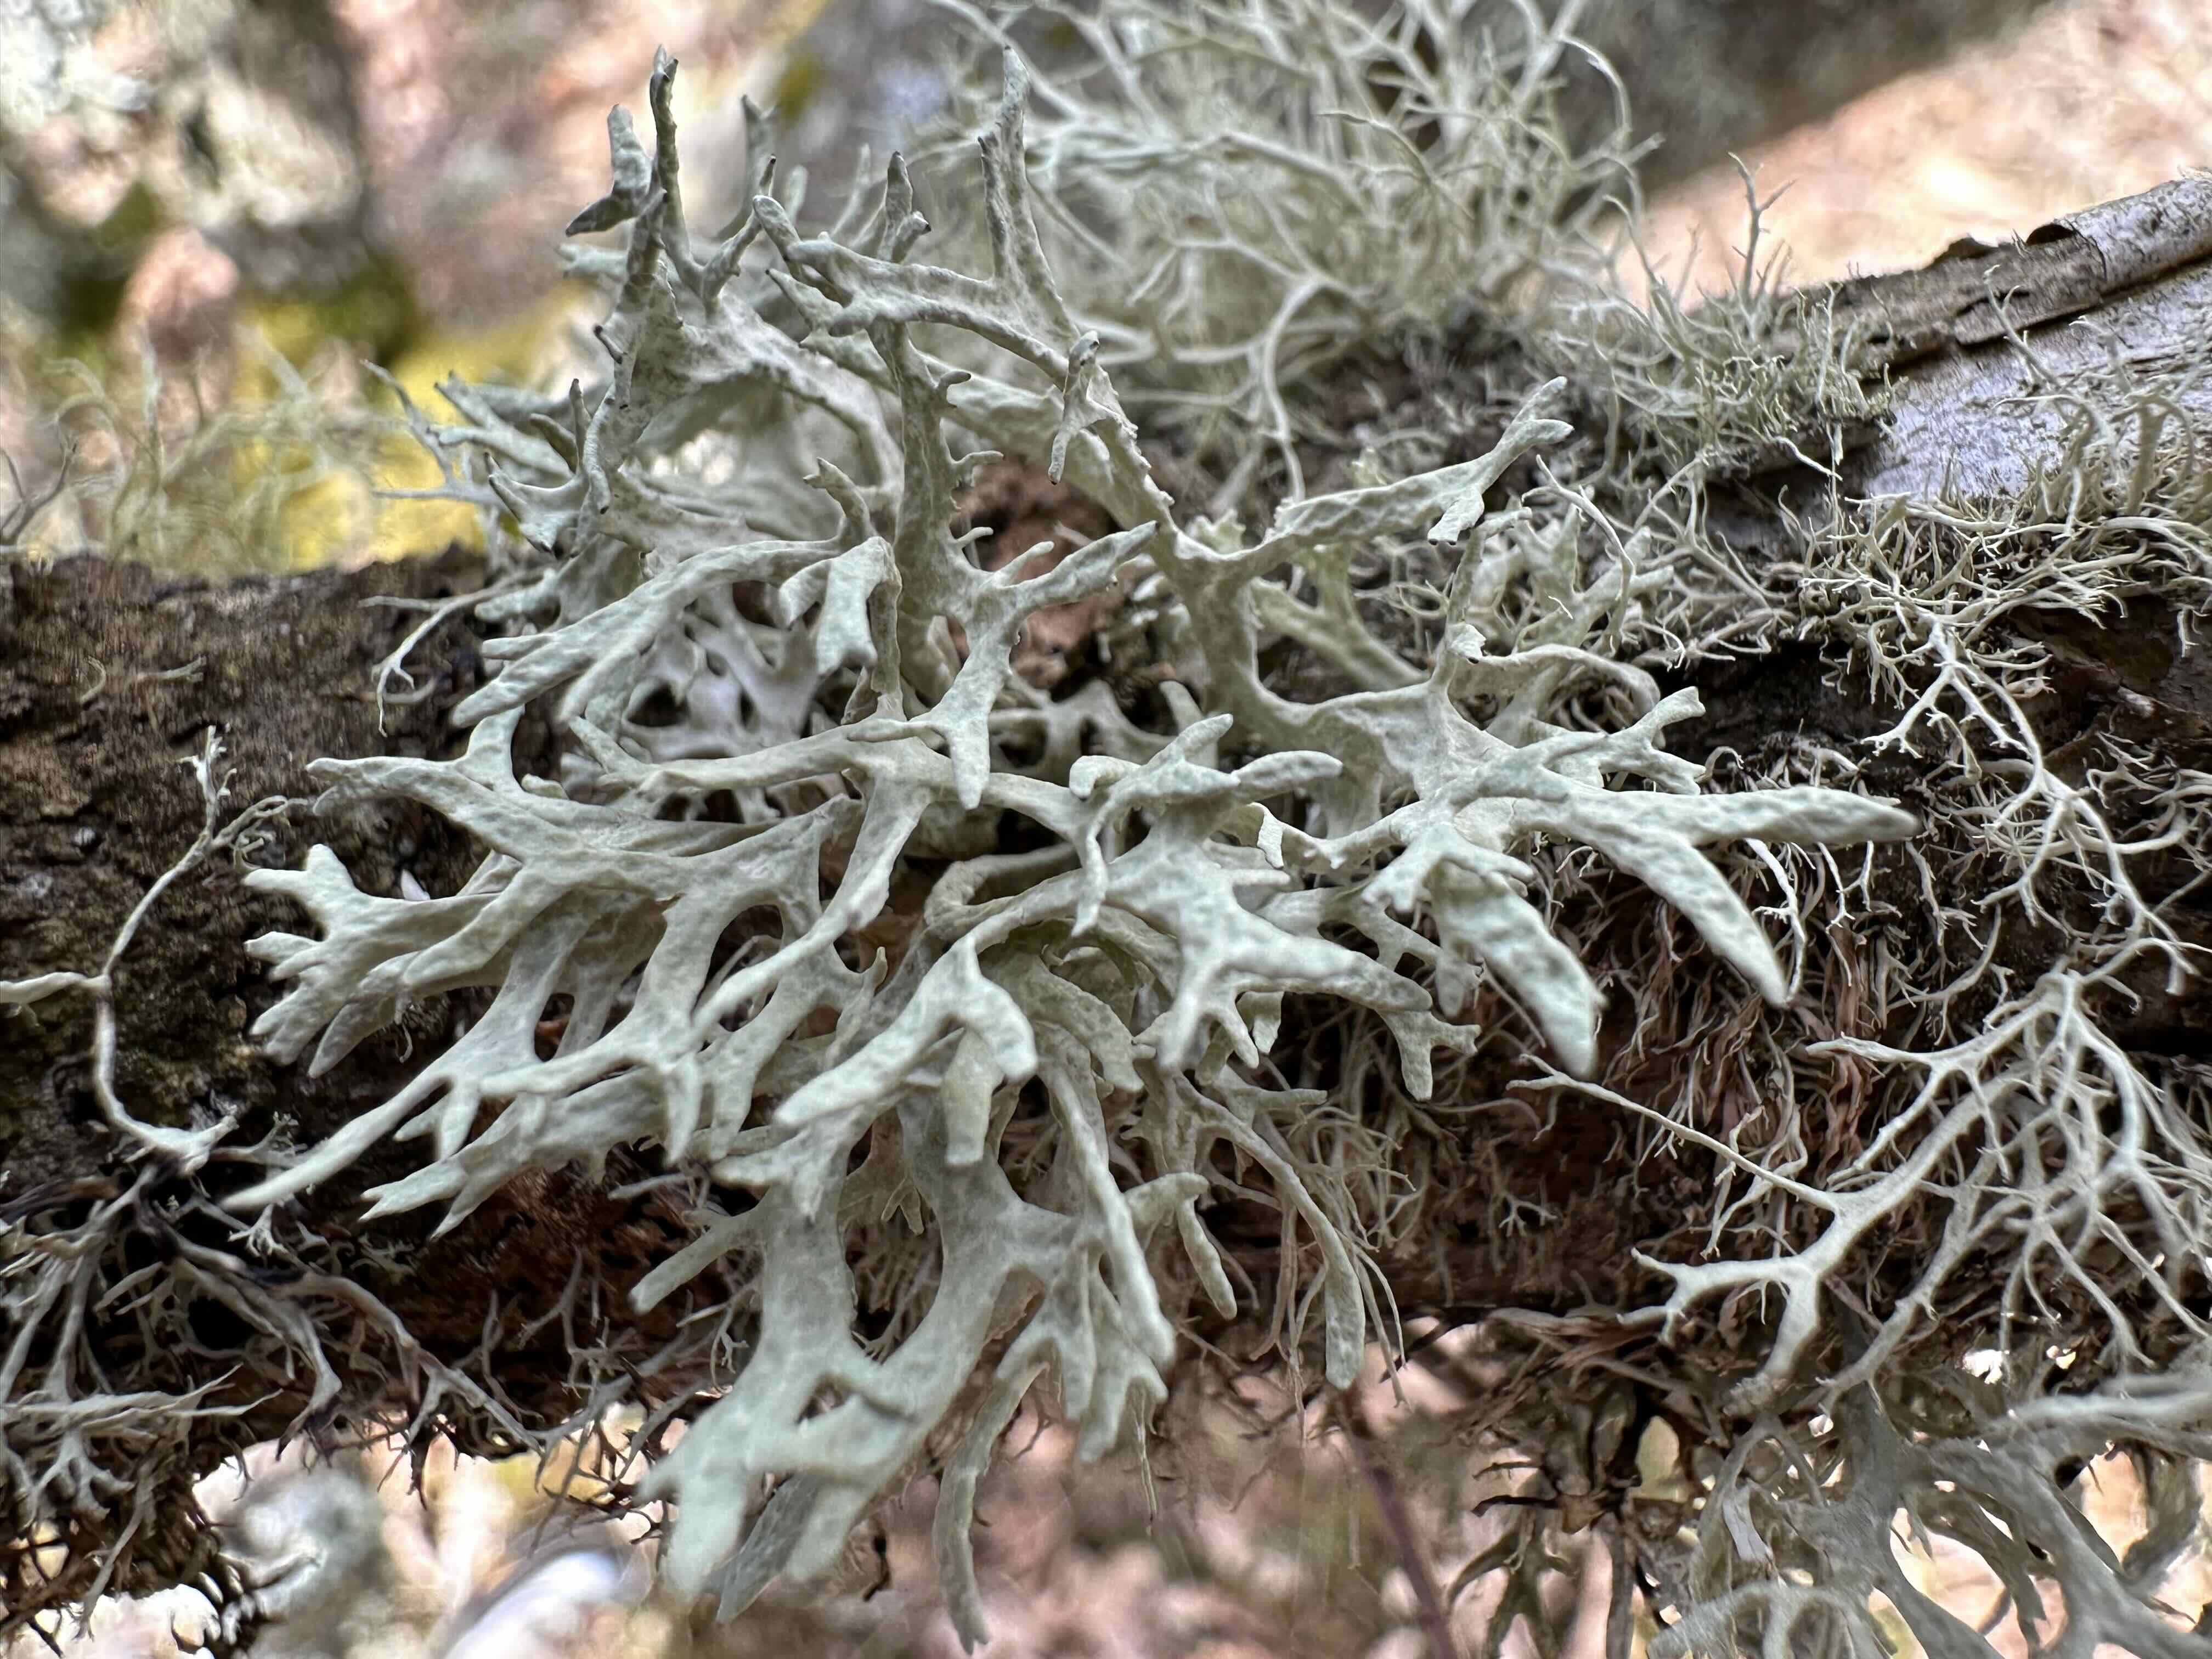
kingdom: Fungi
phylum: Ascomycota
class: Lecanoromycetes
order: Lecanorales
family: Parmeliaceae
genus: Evernia
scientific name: Evernia prunastri
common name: almindelig slåenlav
